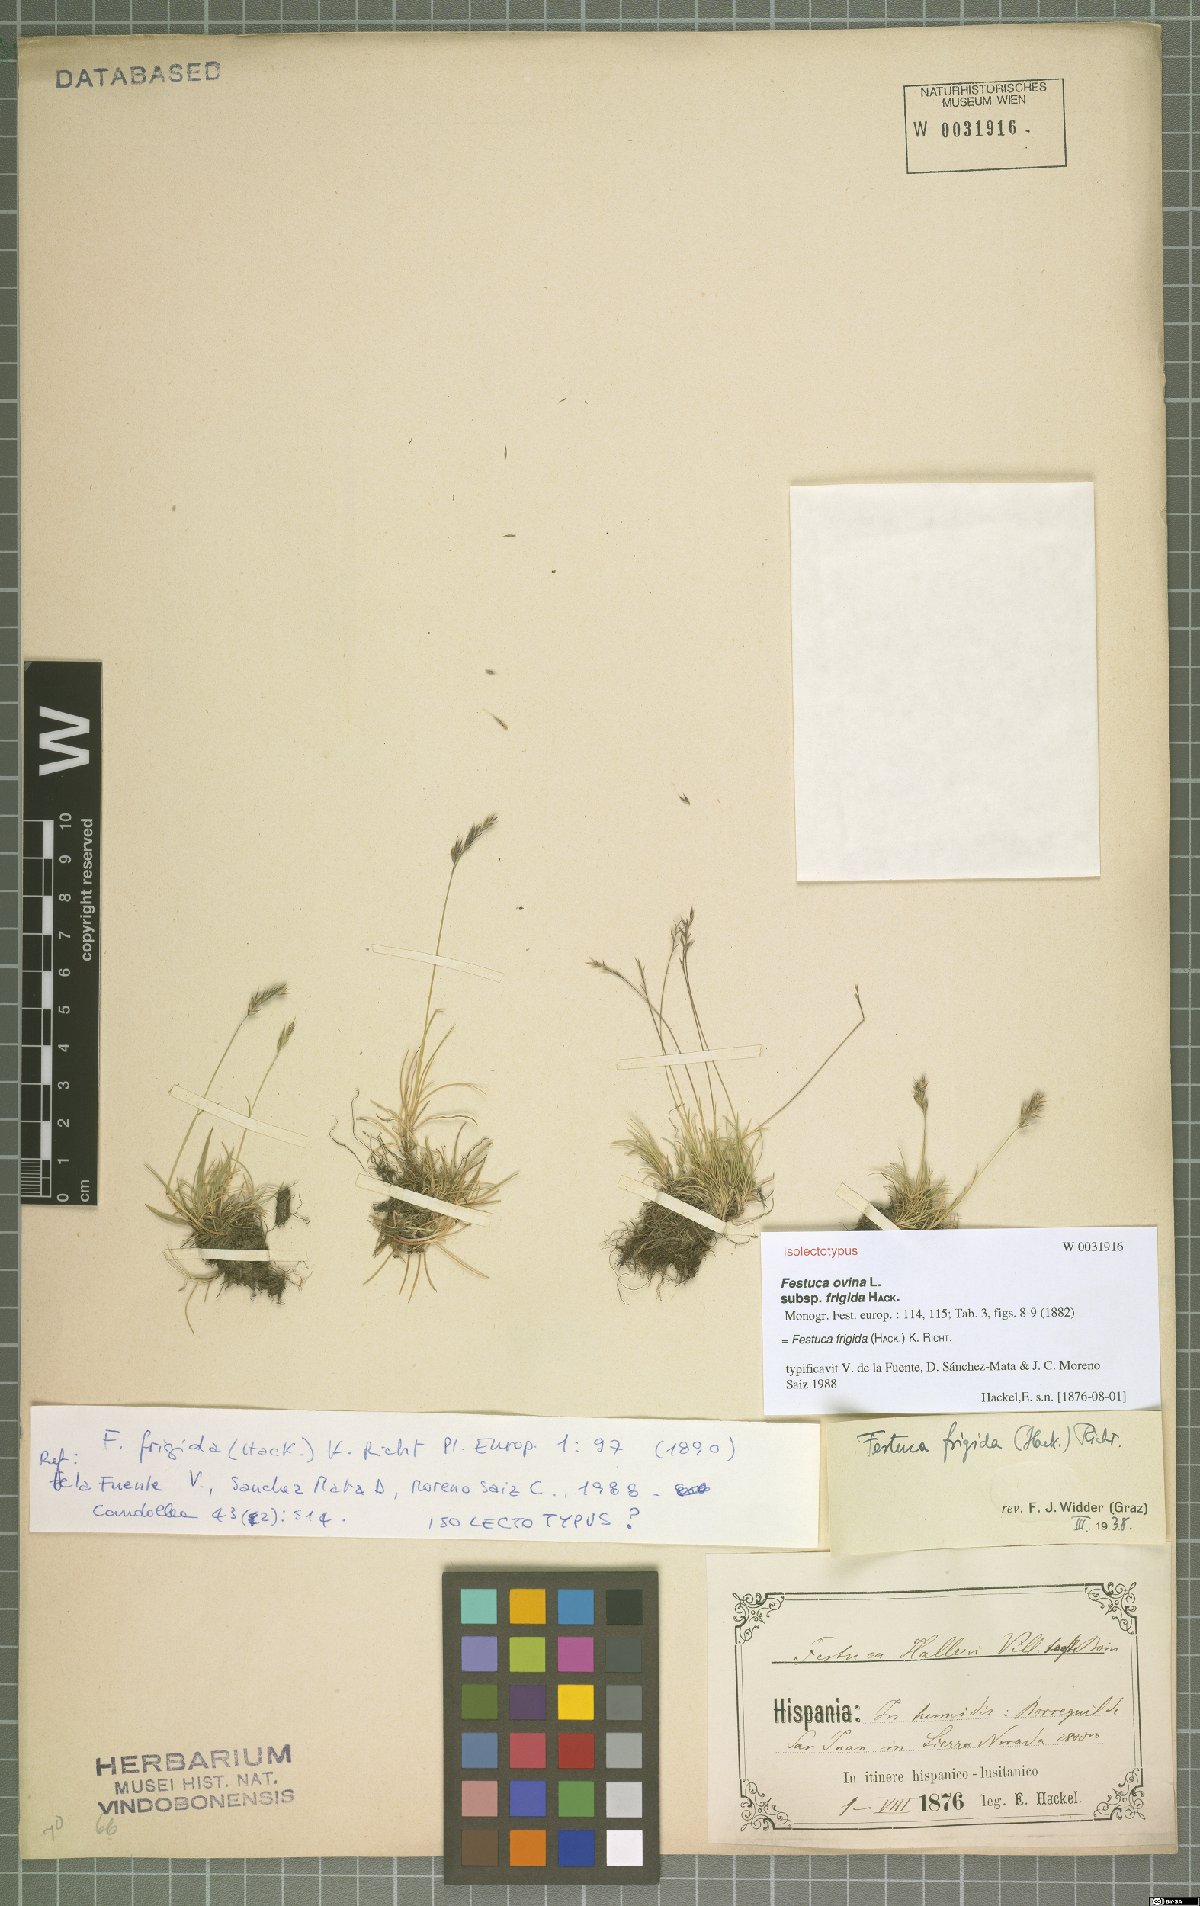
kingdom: Plantae
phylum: Tracheophyta
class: Liliopsida
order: Poales
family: Poaceae
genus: Festuca
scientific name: Festuca frigida
